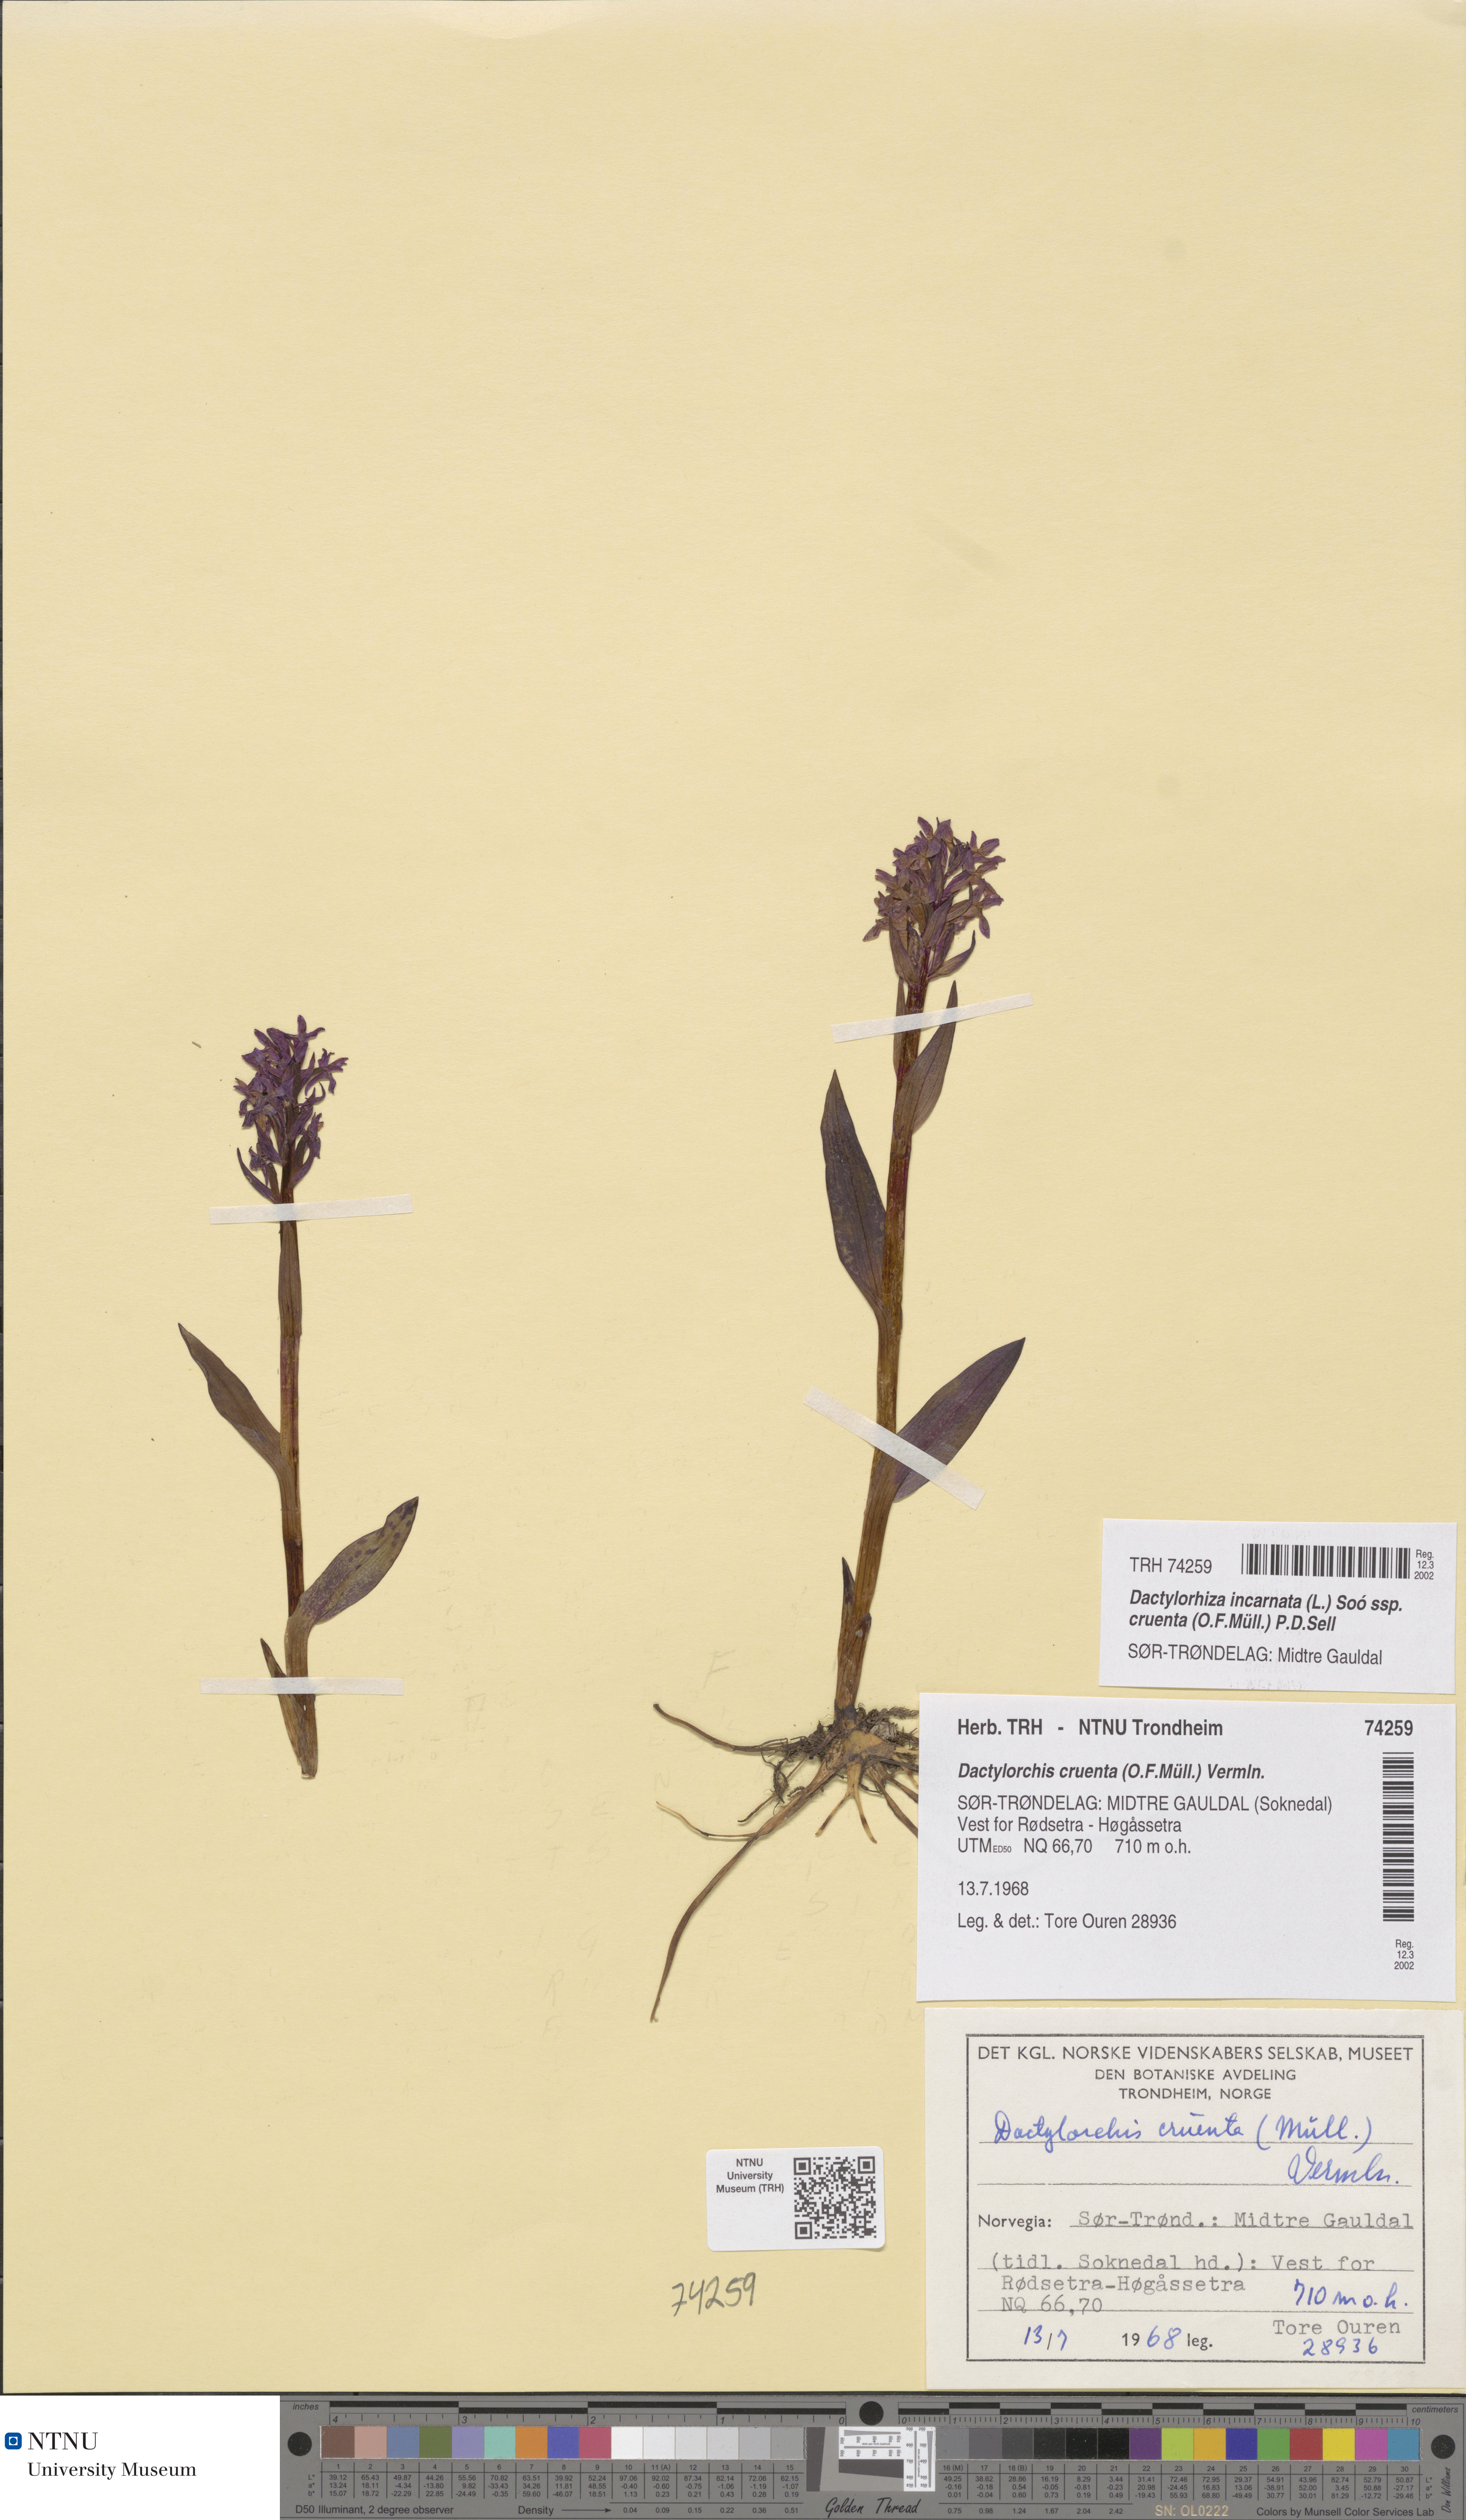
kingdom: Plantae
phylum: Tracheophyta
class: Liliopsida
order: Asparagales
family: Orchidaceae
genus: Dactylorhiza
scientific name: Dactylorhiza incarnata
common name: Early marsh-orchid
